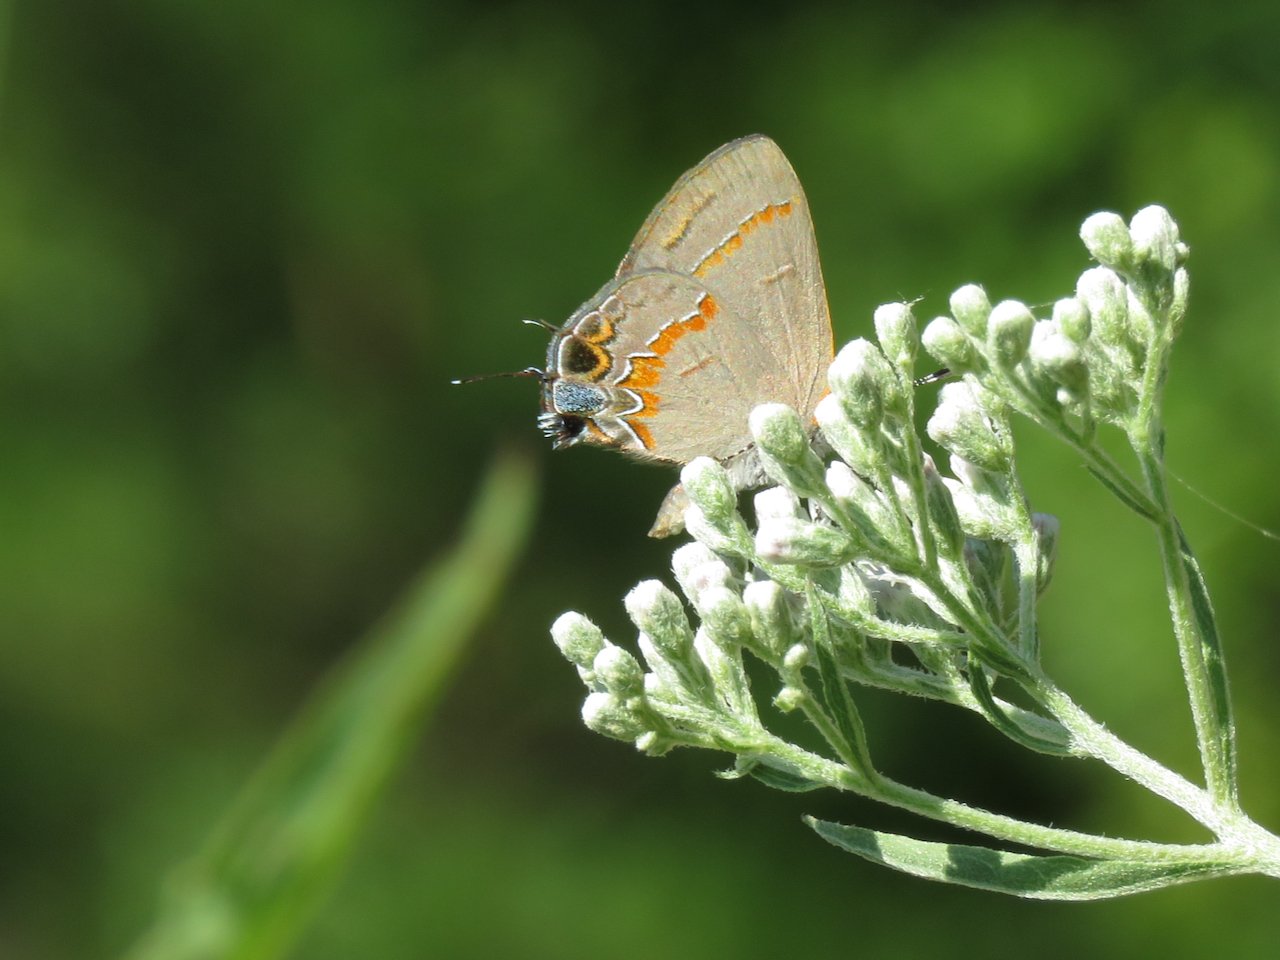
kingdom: Animalia
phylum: Arthropoda
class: Insecta
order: Lepidoptera
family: Lycaenidae
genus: Calycopis
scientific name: Calycopis cecrops
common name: Red-banded Hairstreak
